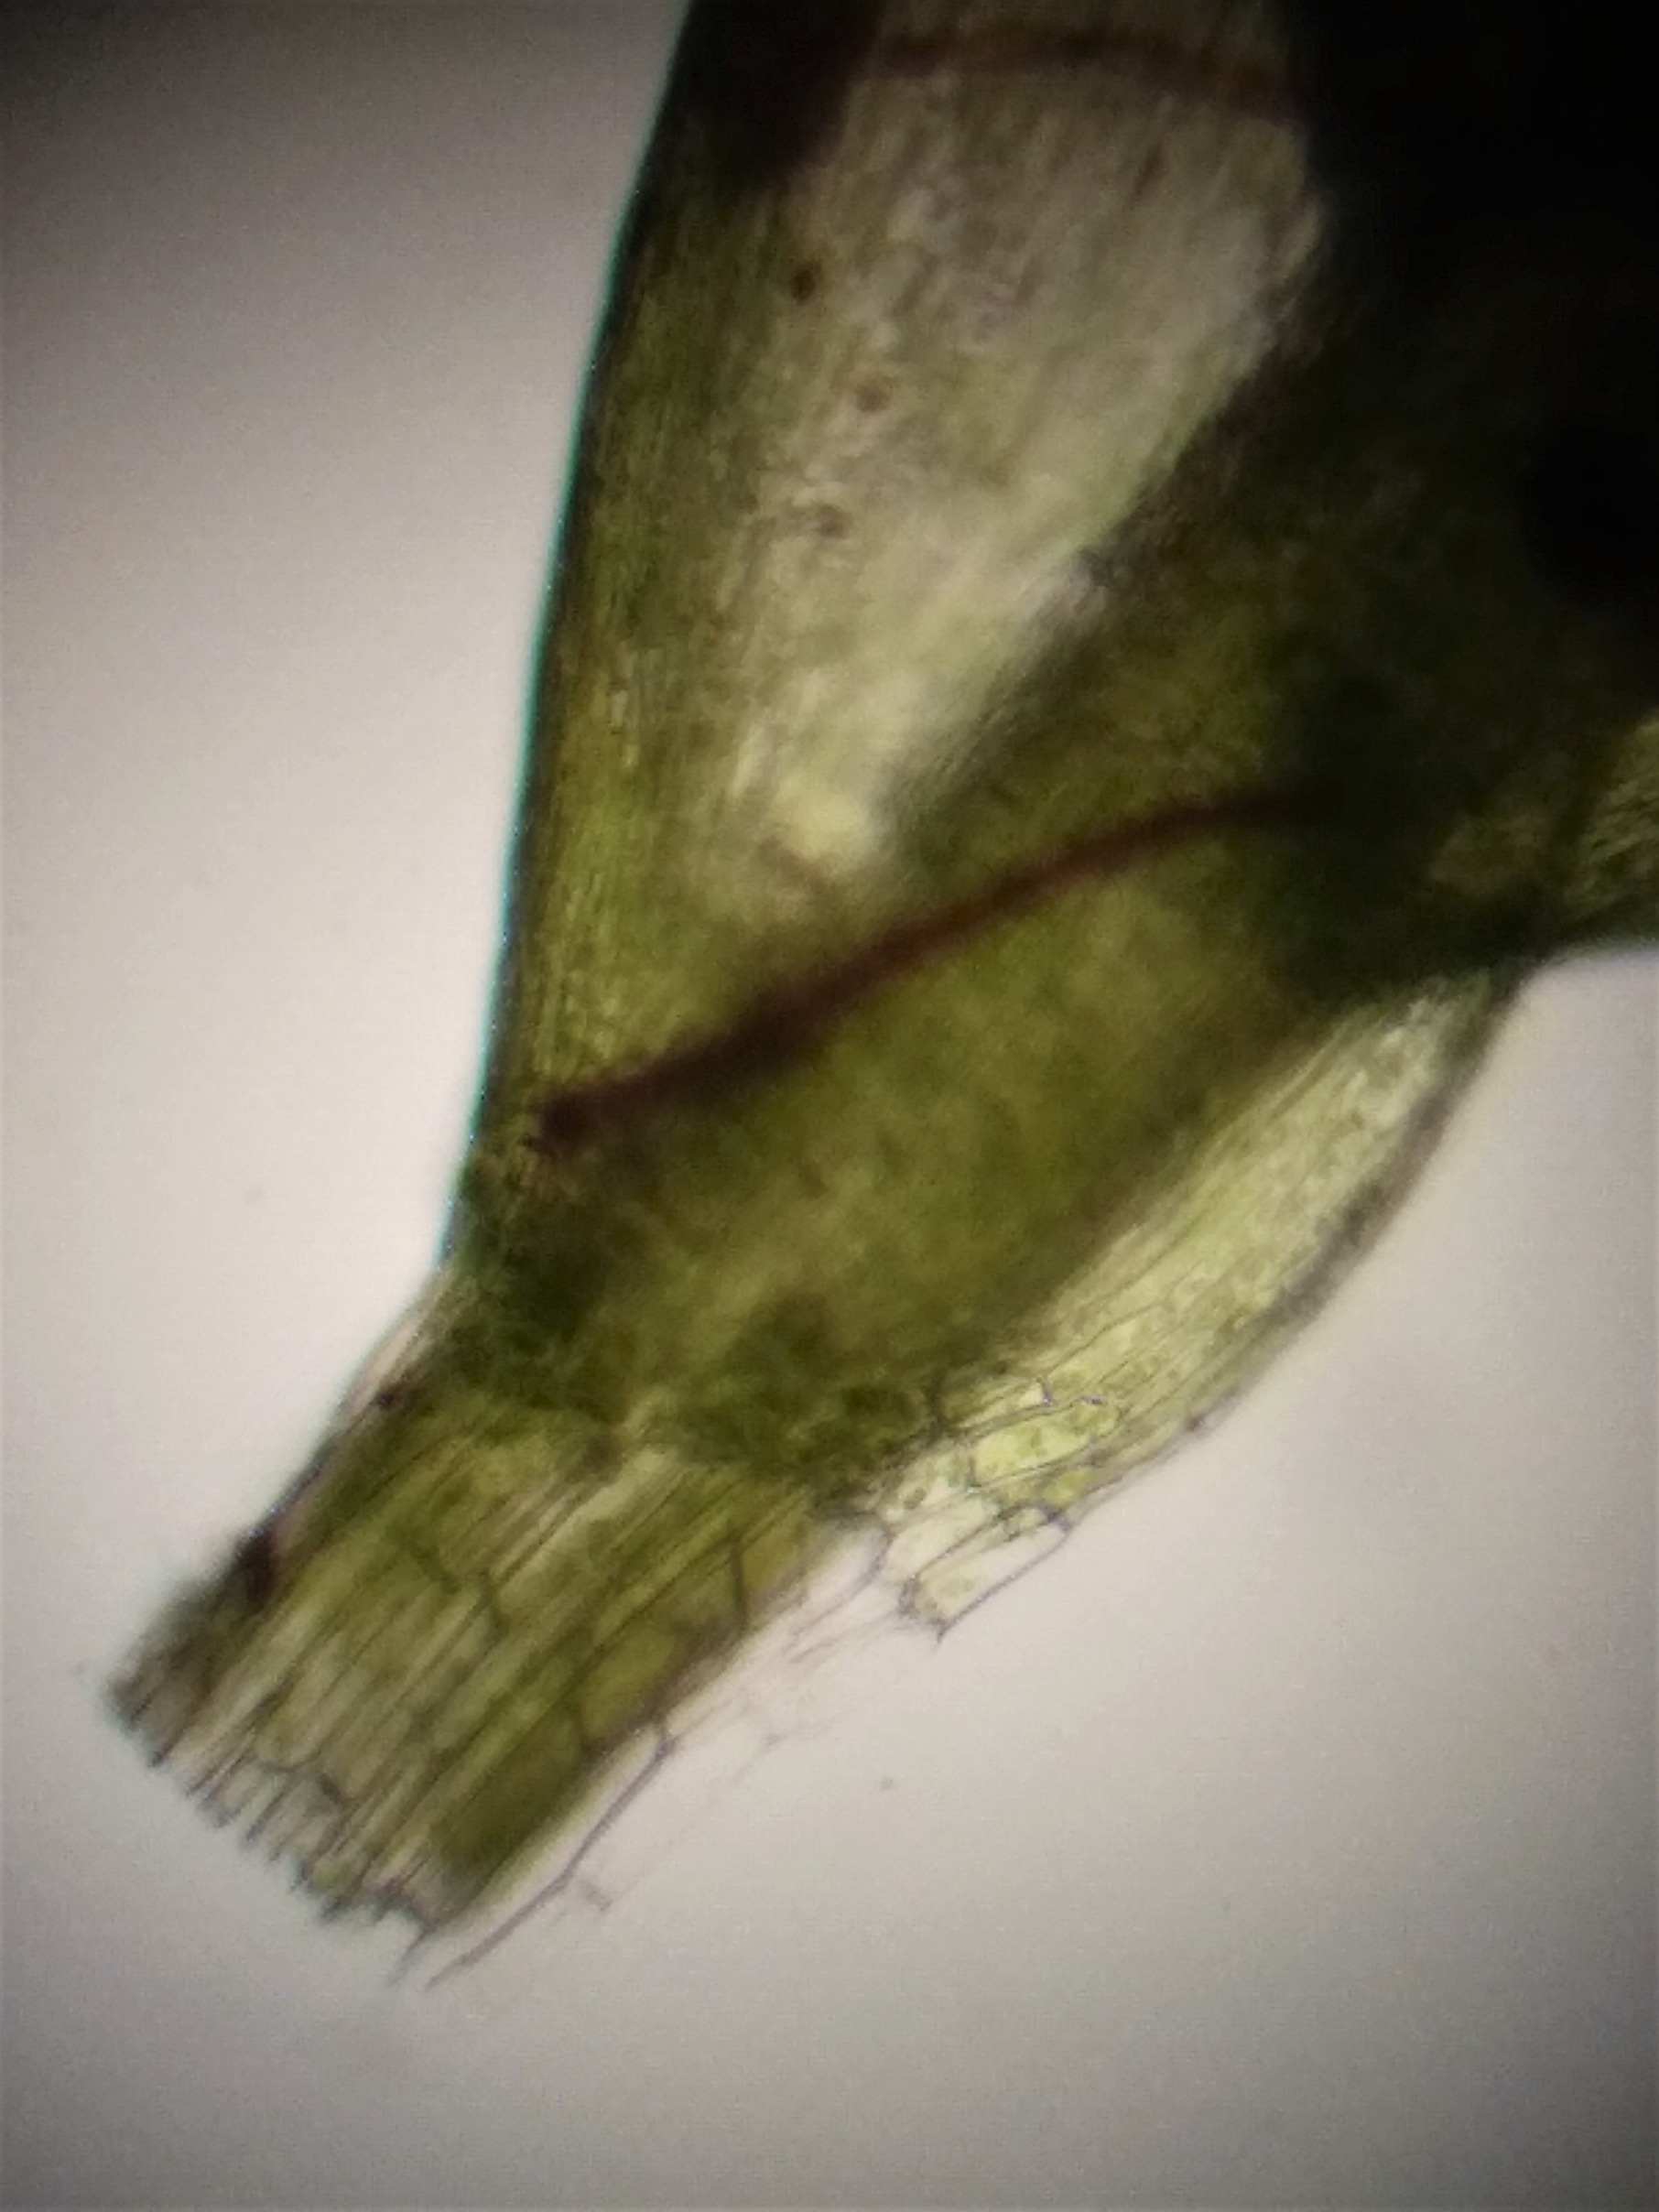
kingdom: Plantae
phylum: Bryophyta
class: Bryopsida
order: Hypnales
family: Plagiotheciaceae
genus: Plagiothecium
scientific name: Plagiothecium latebricola
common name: Spinkel tæppemos
